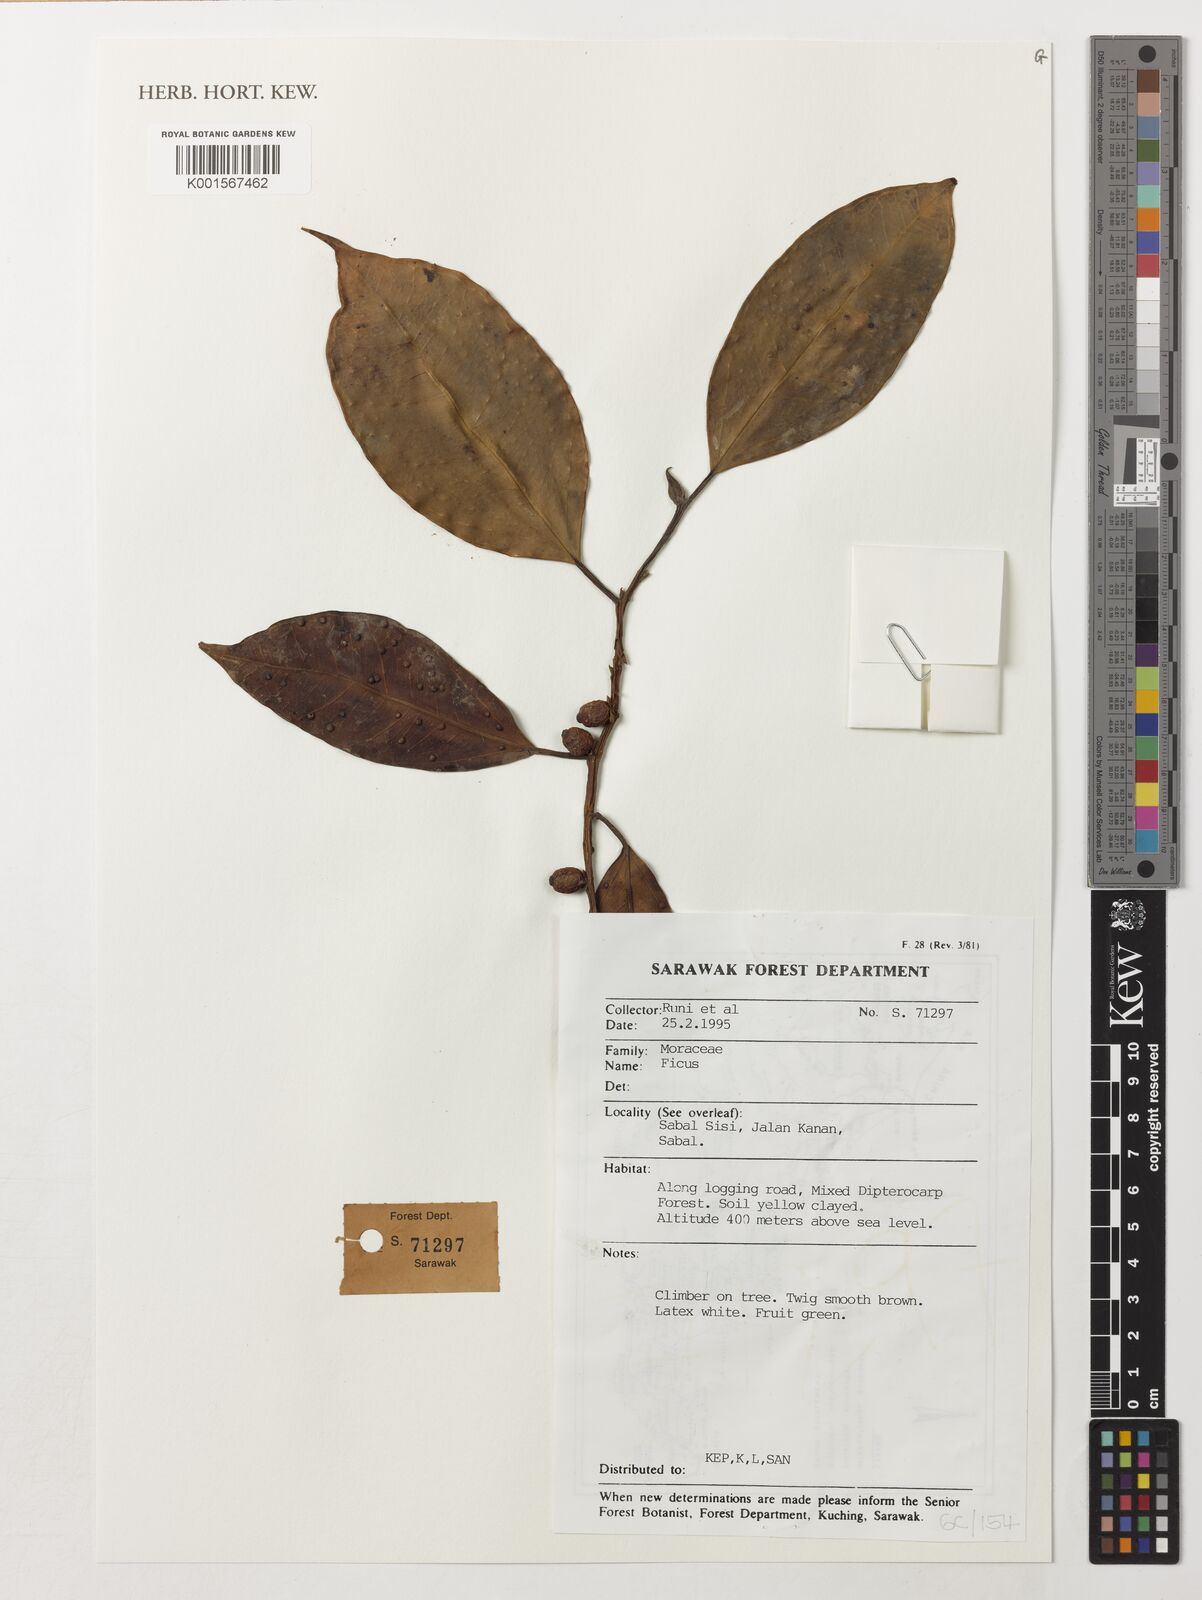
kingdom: Plantae
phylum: Tracheophyta
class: Magnoliopsida
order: Rosales
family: Moraceae
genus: Ficus
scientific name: Ficus
